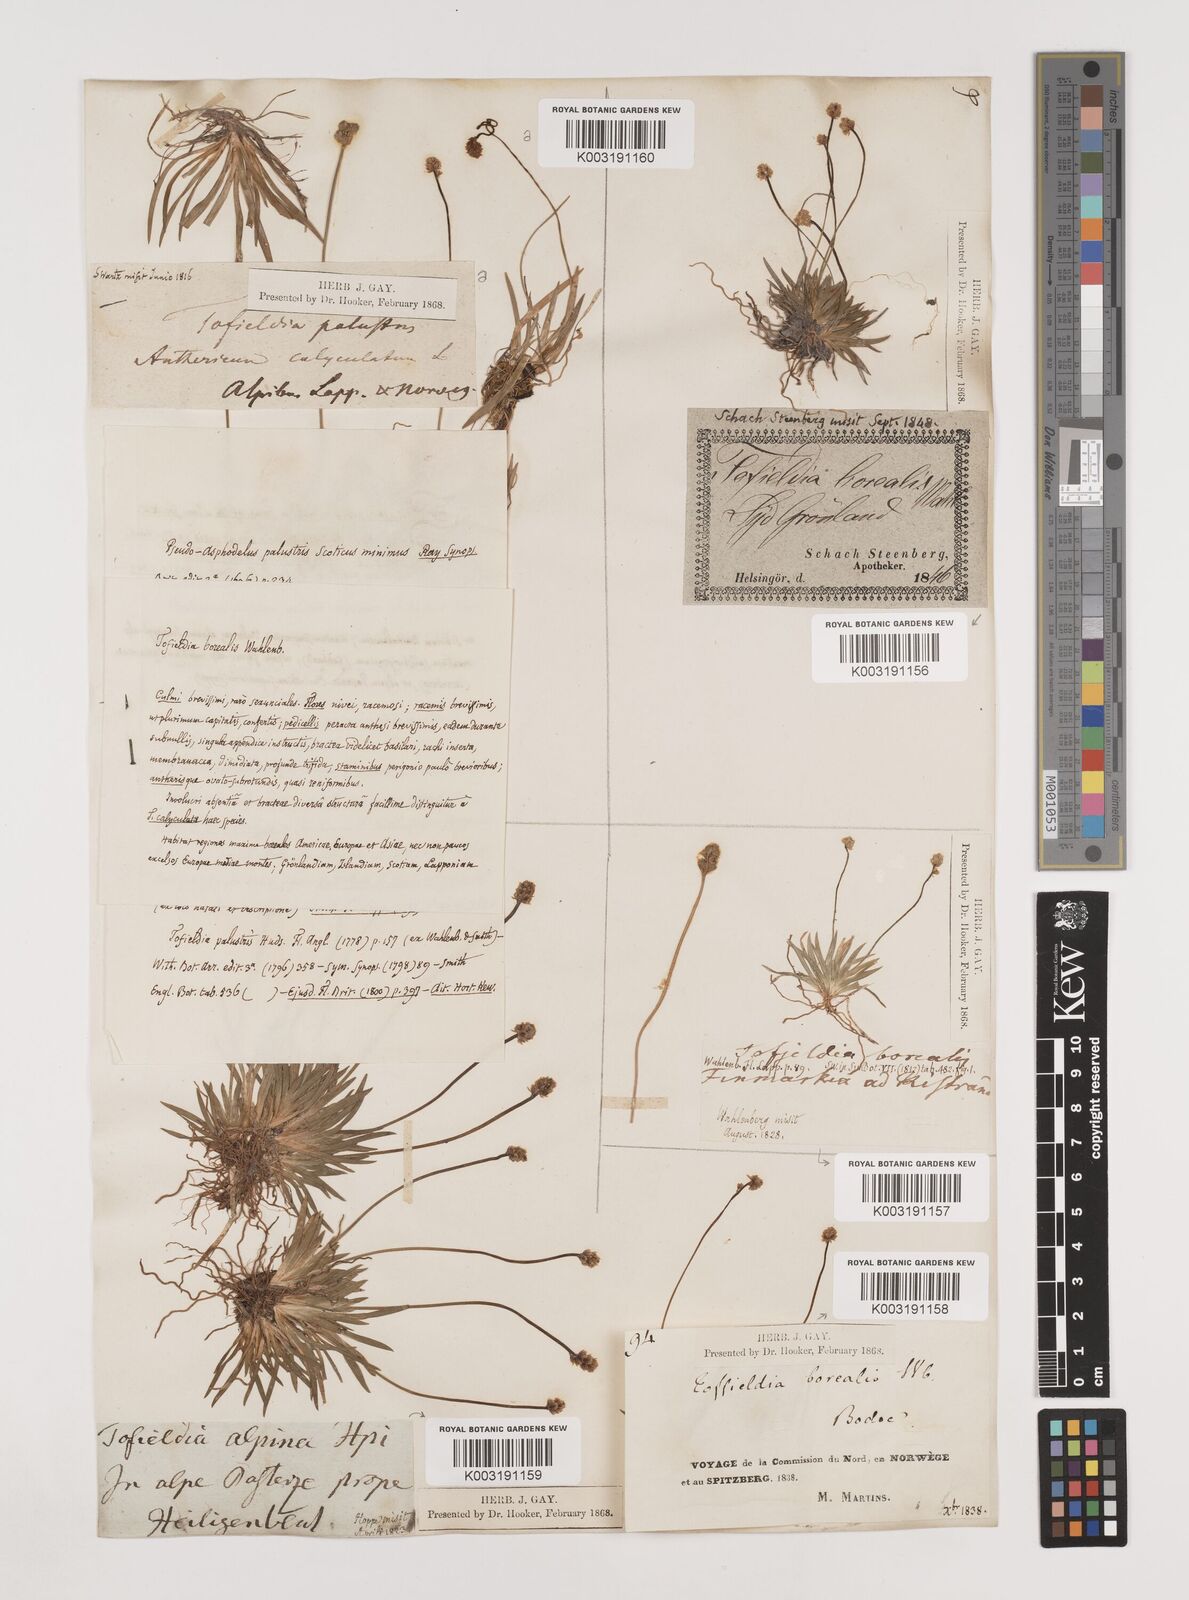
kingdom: Plantae
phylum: Tracheophyta
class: Liliopsida
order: Alismatales
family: Tofieldiaceae
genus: Tofieldia
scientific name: Tofieldia pusilla
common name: Scottish false asphodel
